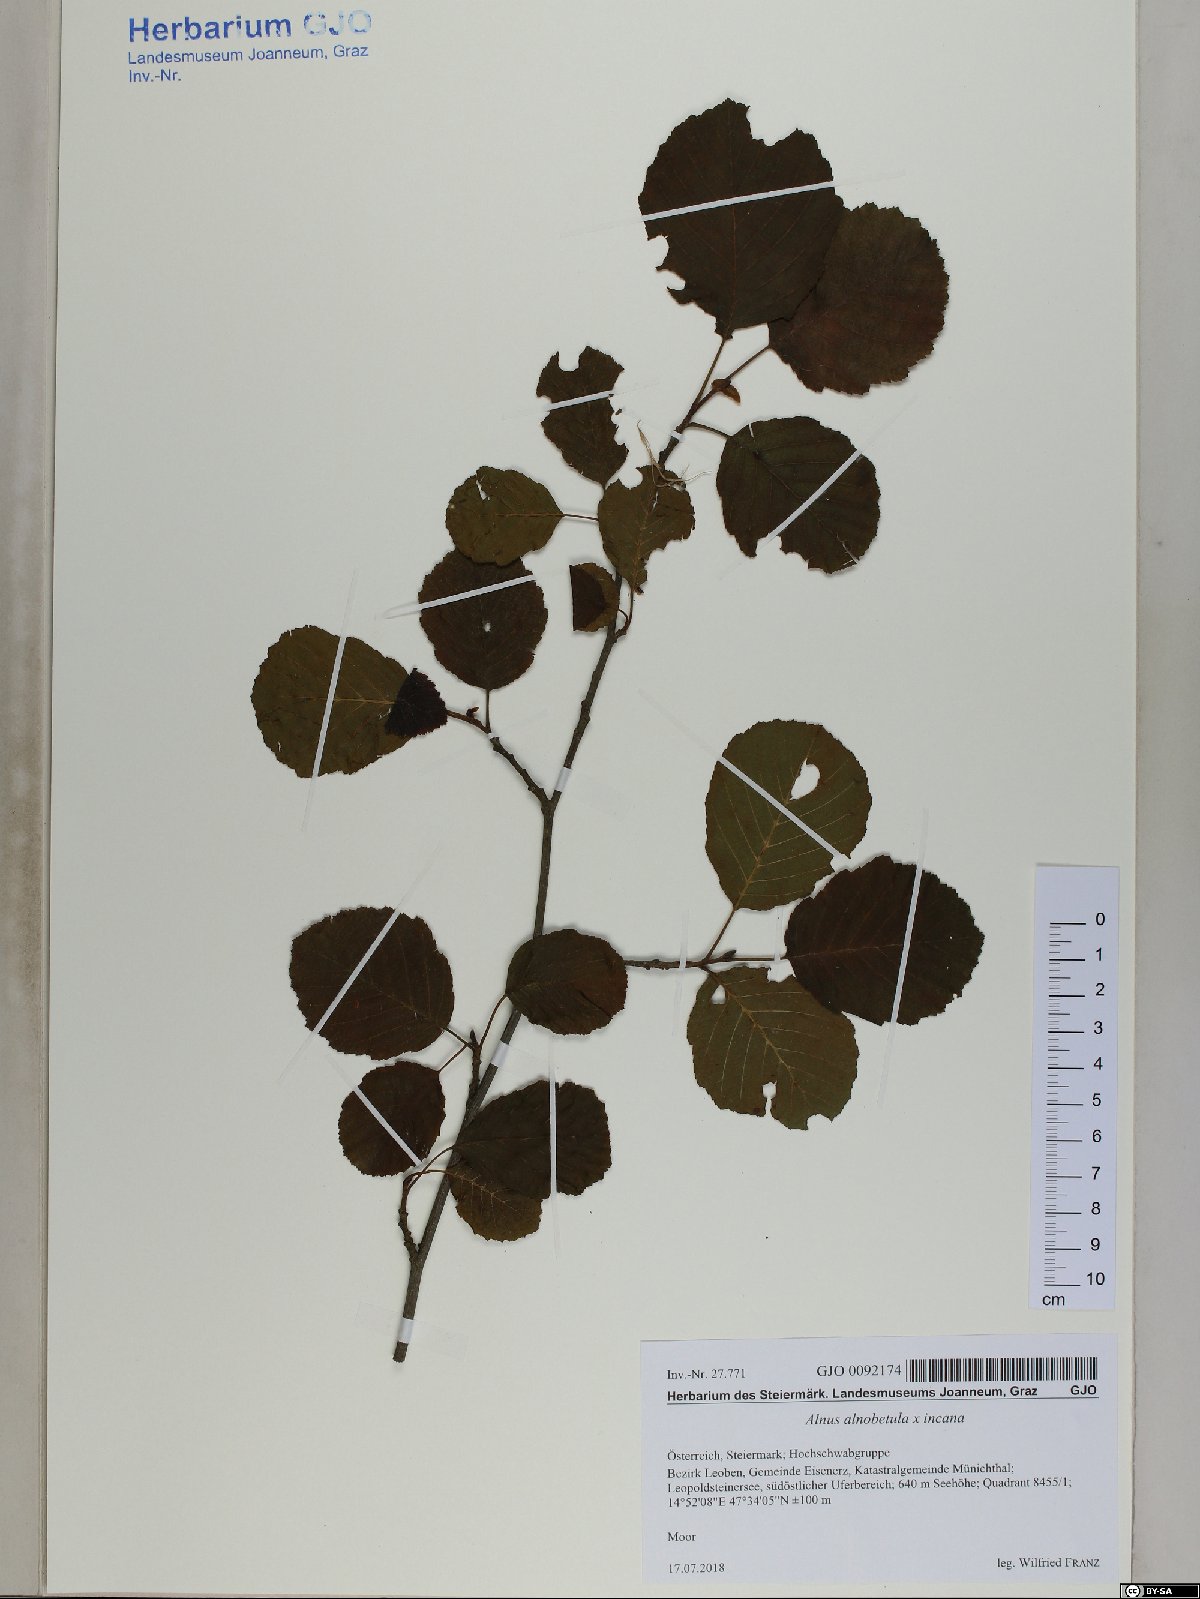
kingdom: Plantae
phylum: Tracheophyta
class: Magnoliopsida
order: Fagales
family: Betulaceae
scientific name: Betulaceae
